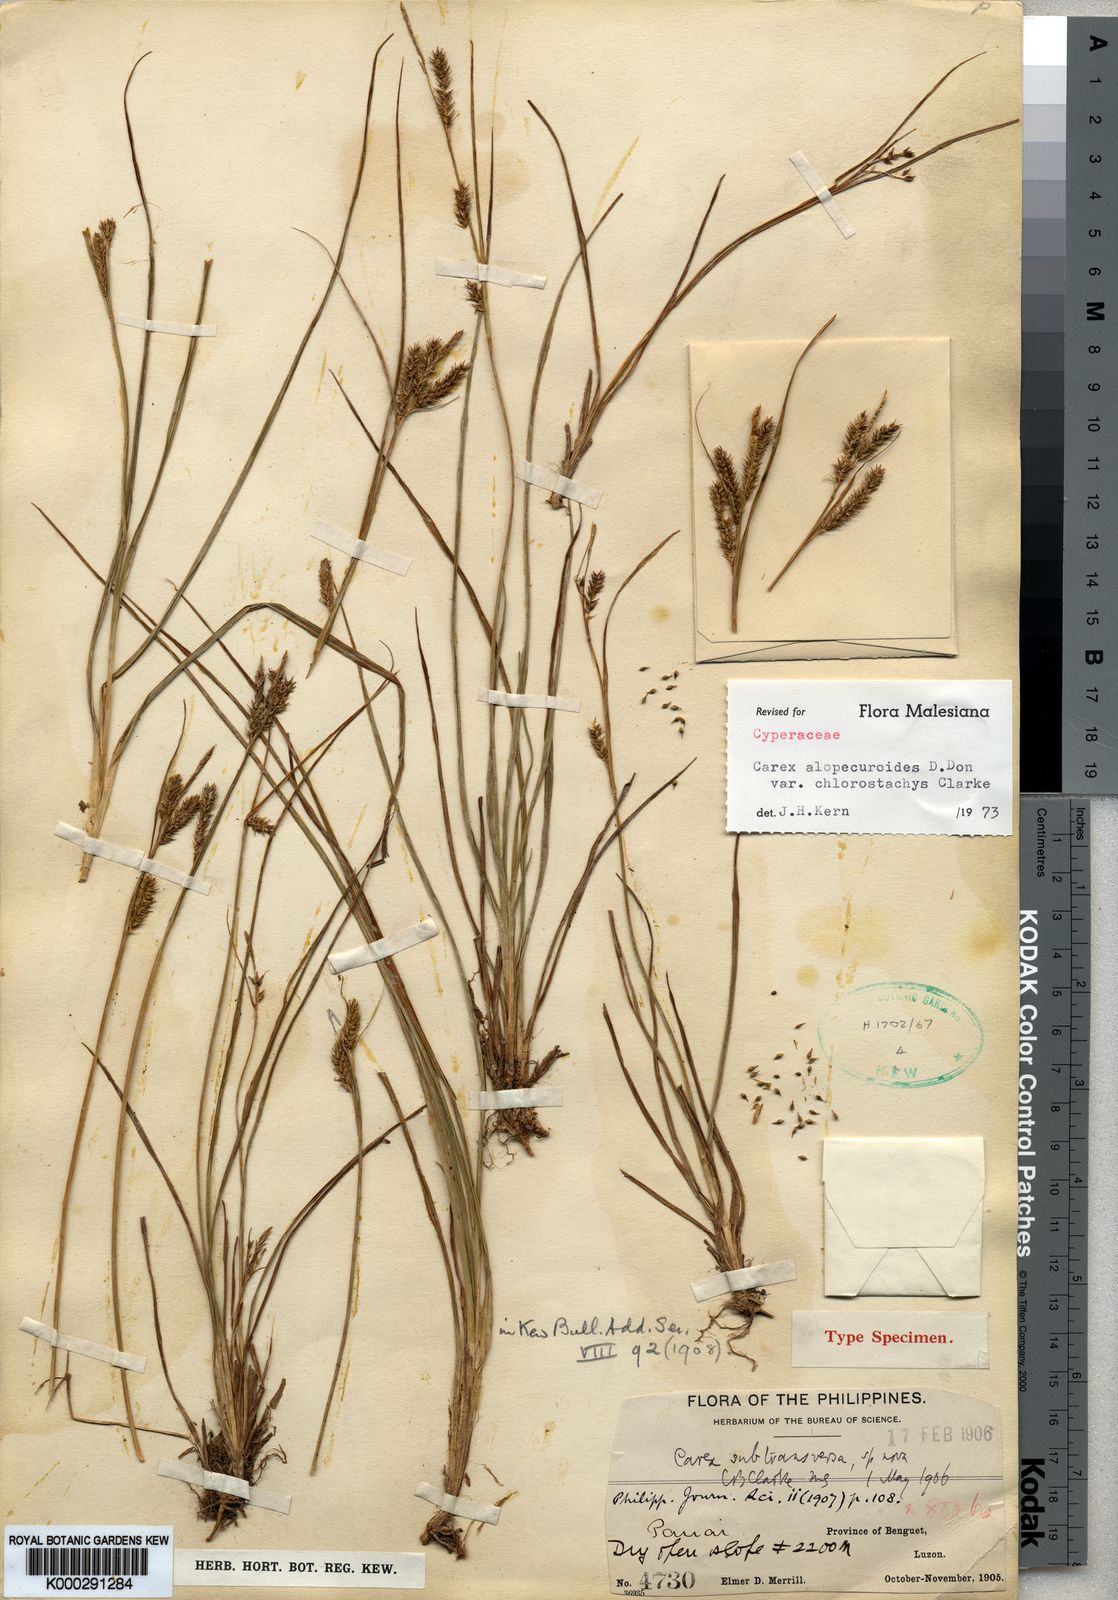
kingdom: Plantae
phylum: Tracheophyta
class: Liliopsida
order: Poales
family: Cyperaceae
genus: Carex
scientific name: Carex alopecuroides
